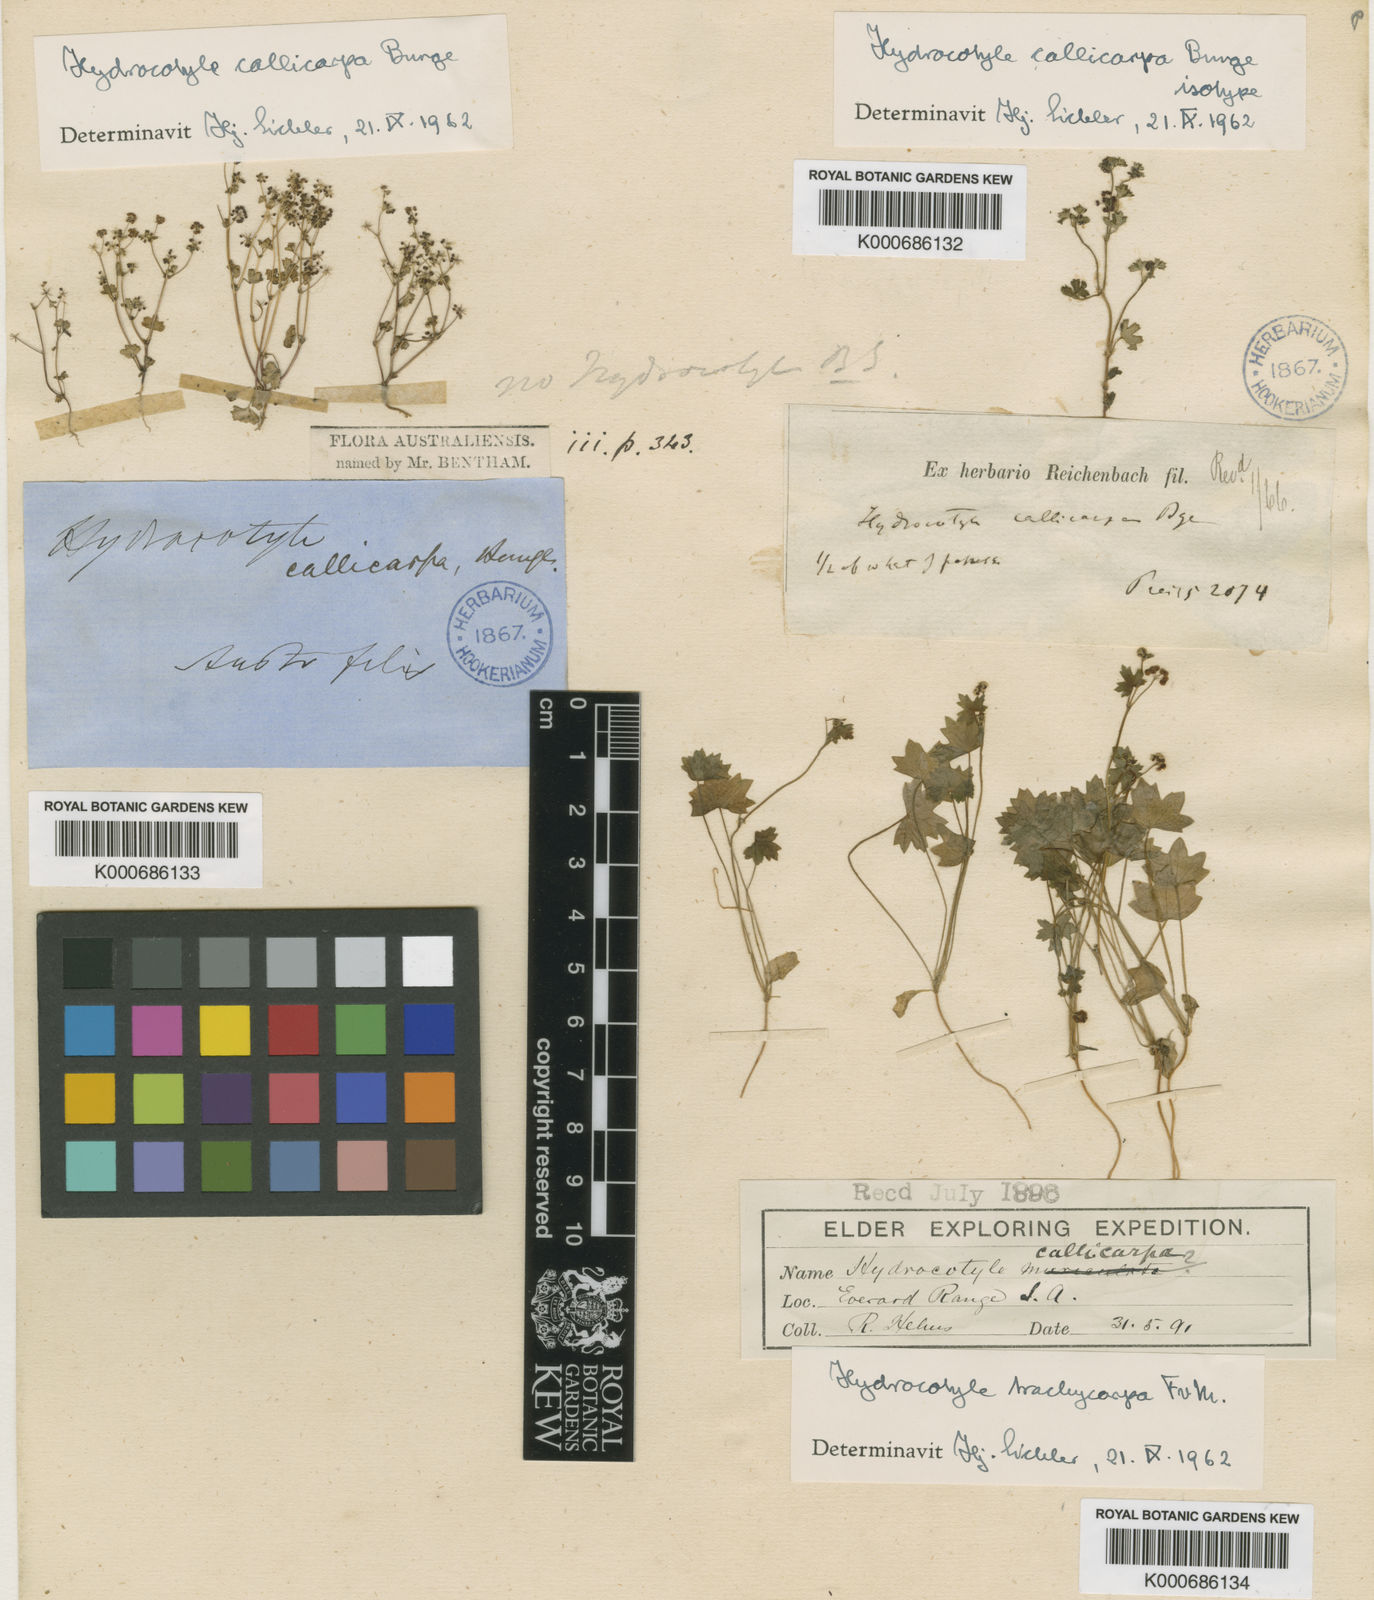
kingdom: Plantae
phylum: Tracheophyta
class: Magnoliopsida
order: Apiales
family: Araliaceae
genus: Hydrocotyle
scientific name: Hydrocotyle callicarpa
